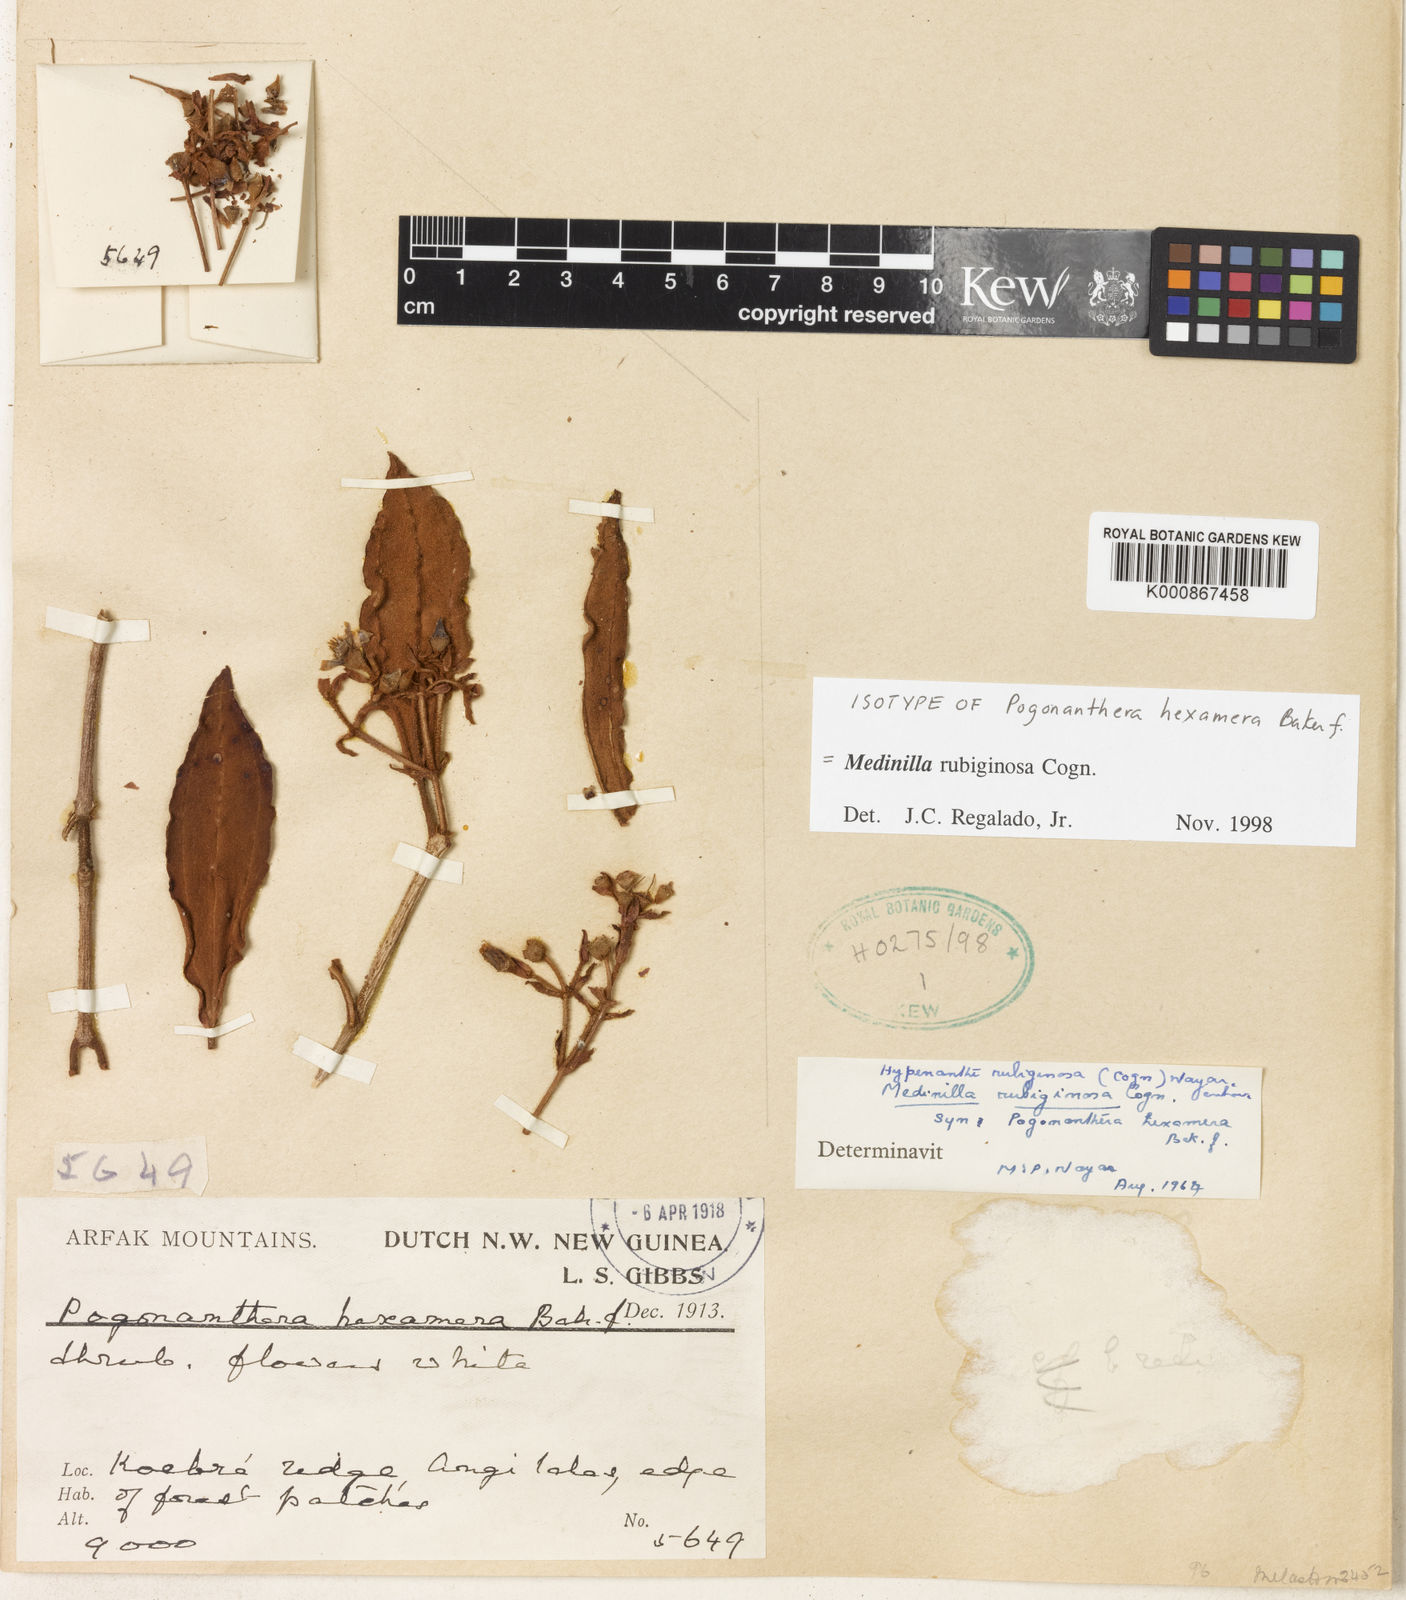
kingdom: Plantae
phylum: Tracheophyta
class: Magnoliopsida
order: Myrtales
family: Melastomataceae
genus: Medinilla
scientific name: Medinilla rubiginosa
